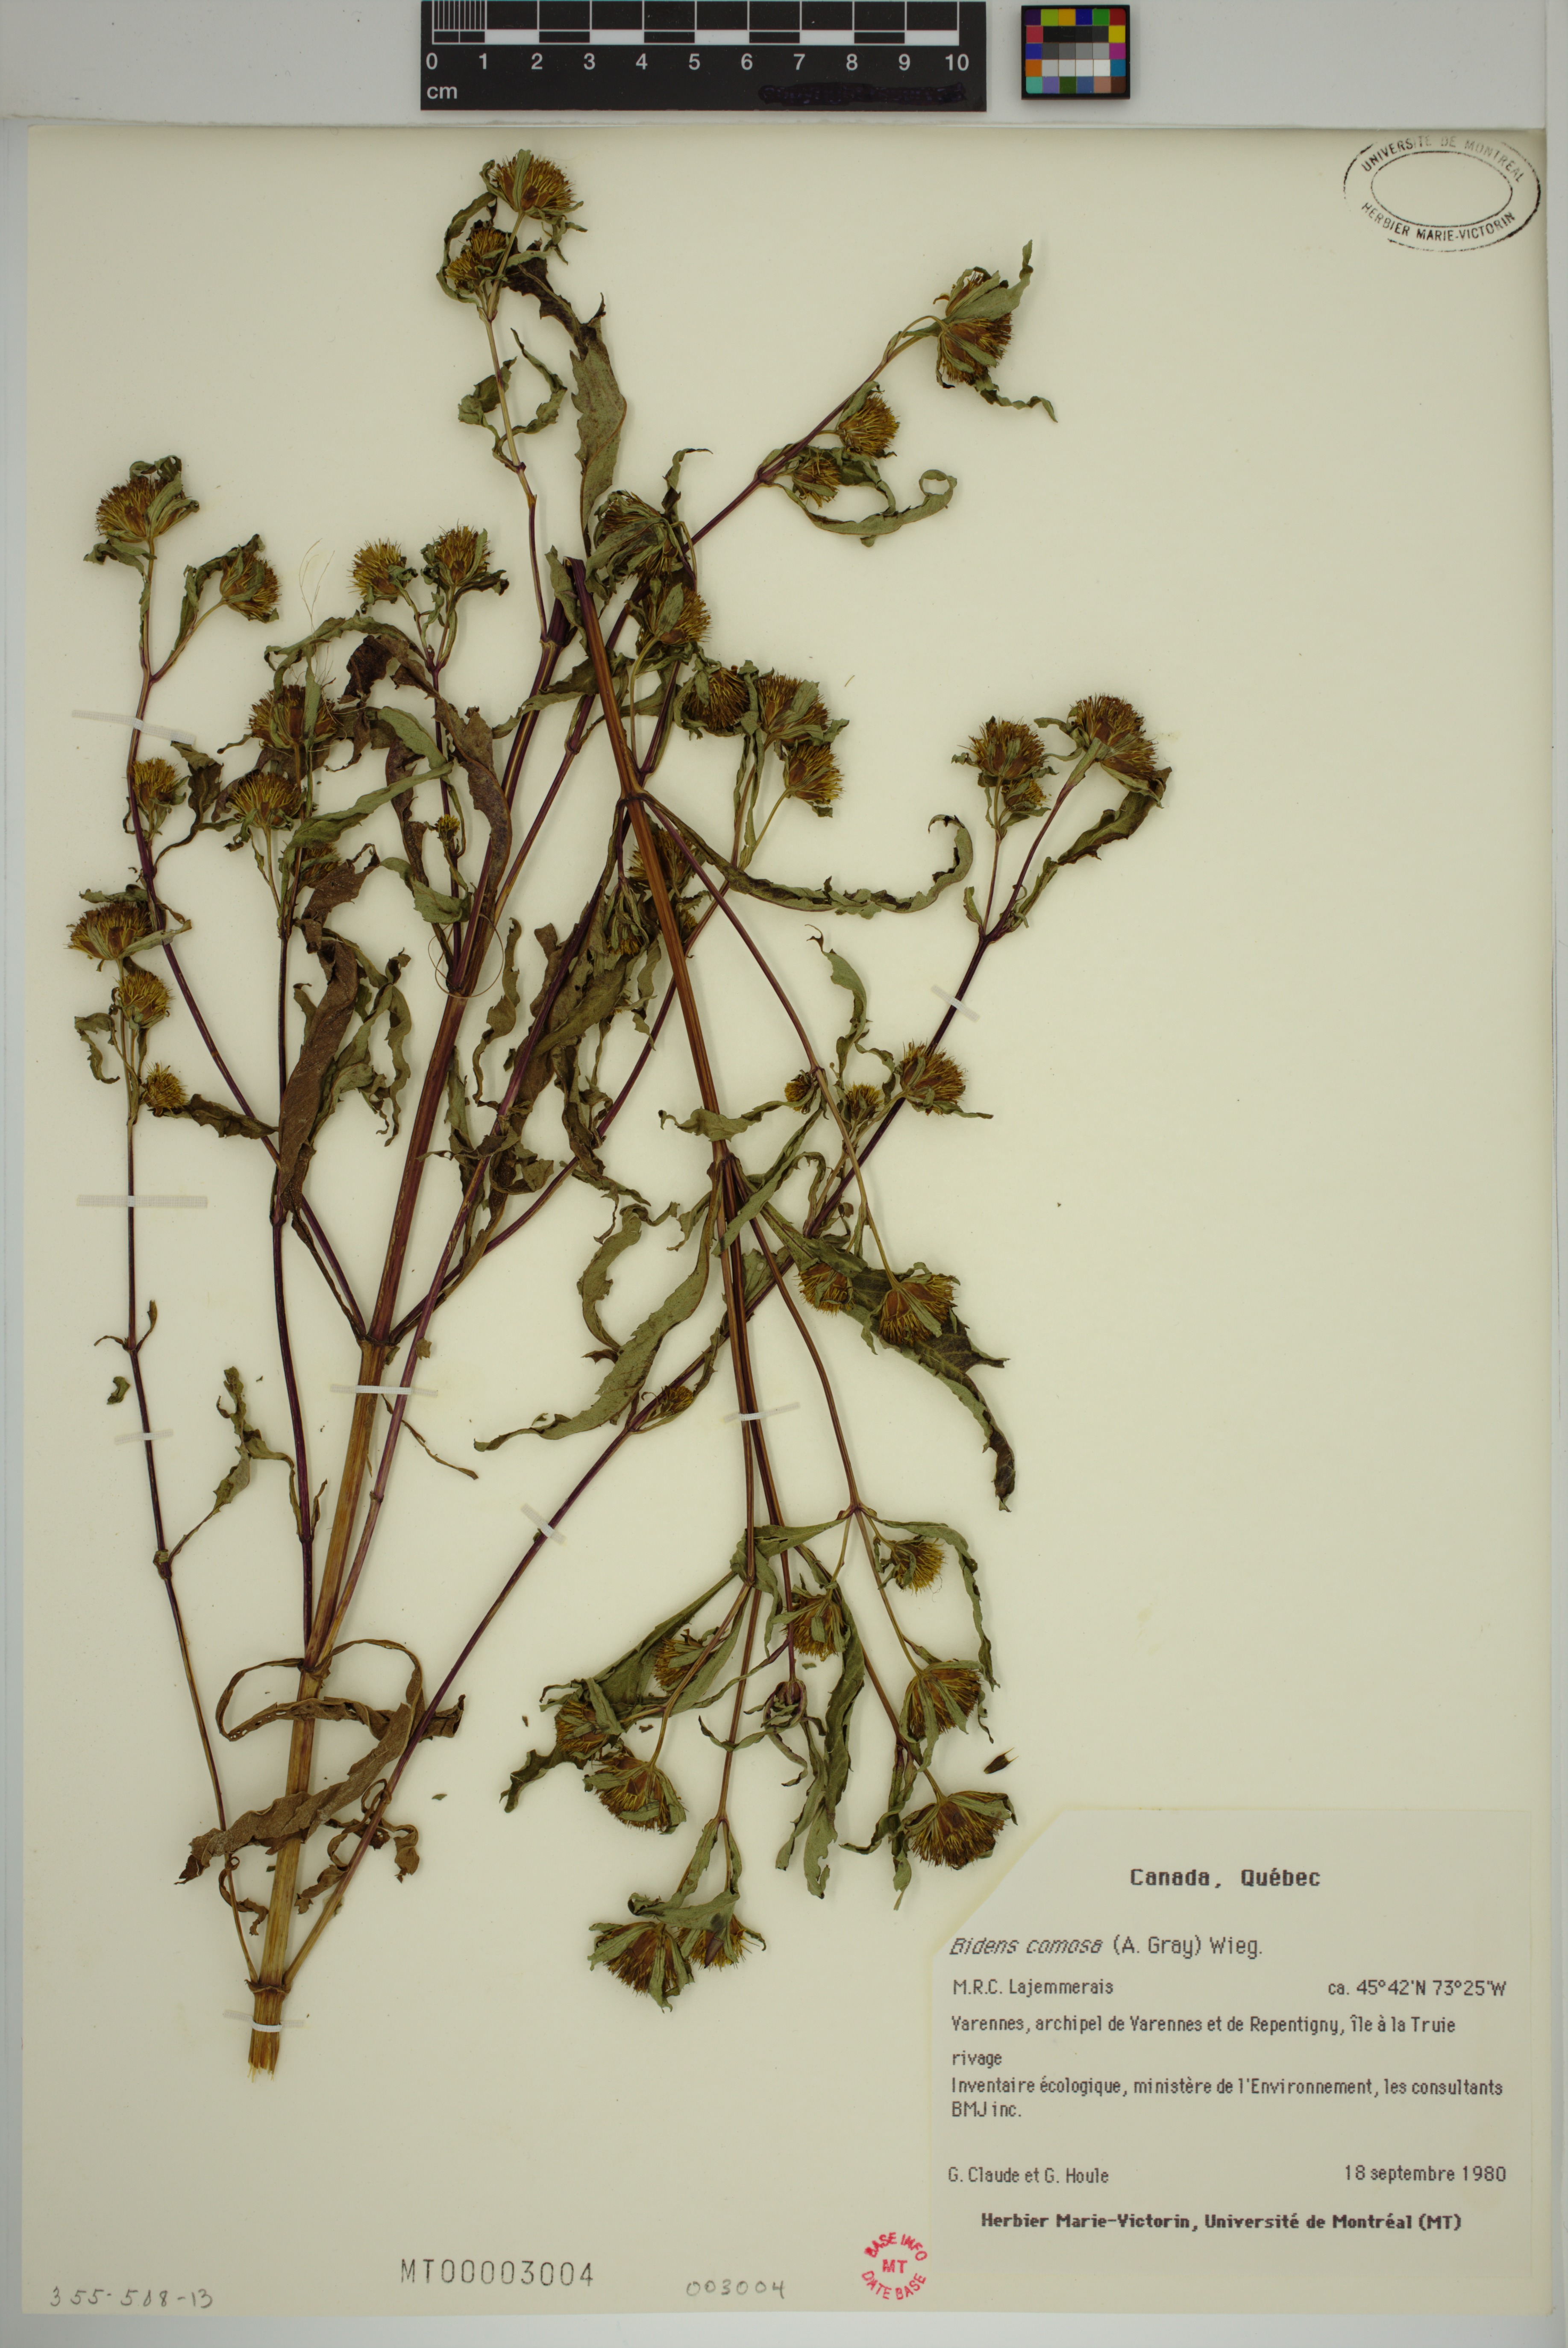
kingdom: Plantae
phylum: Tracheophyta
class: Magnoliopsida
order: Asterales
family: Asteraceae
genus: Bidens
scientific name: Bidens tripartita
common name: Trifid bur-marigold
